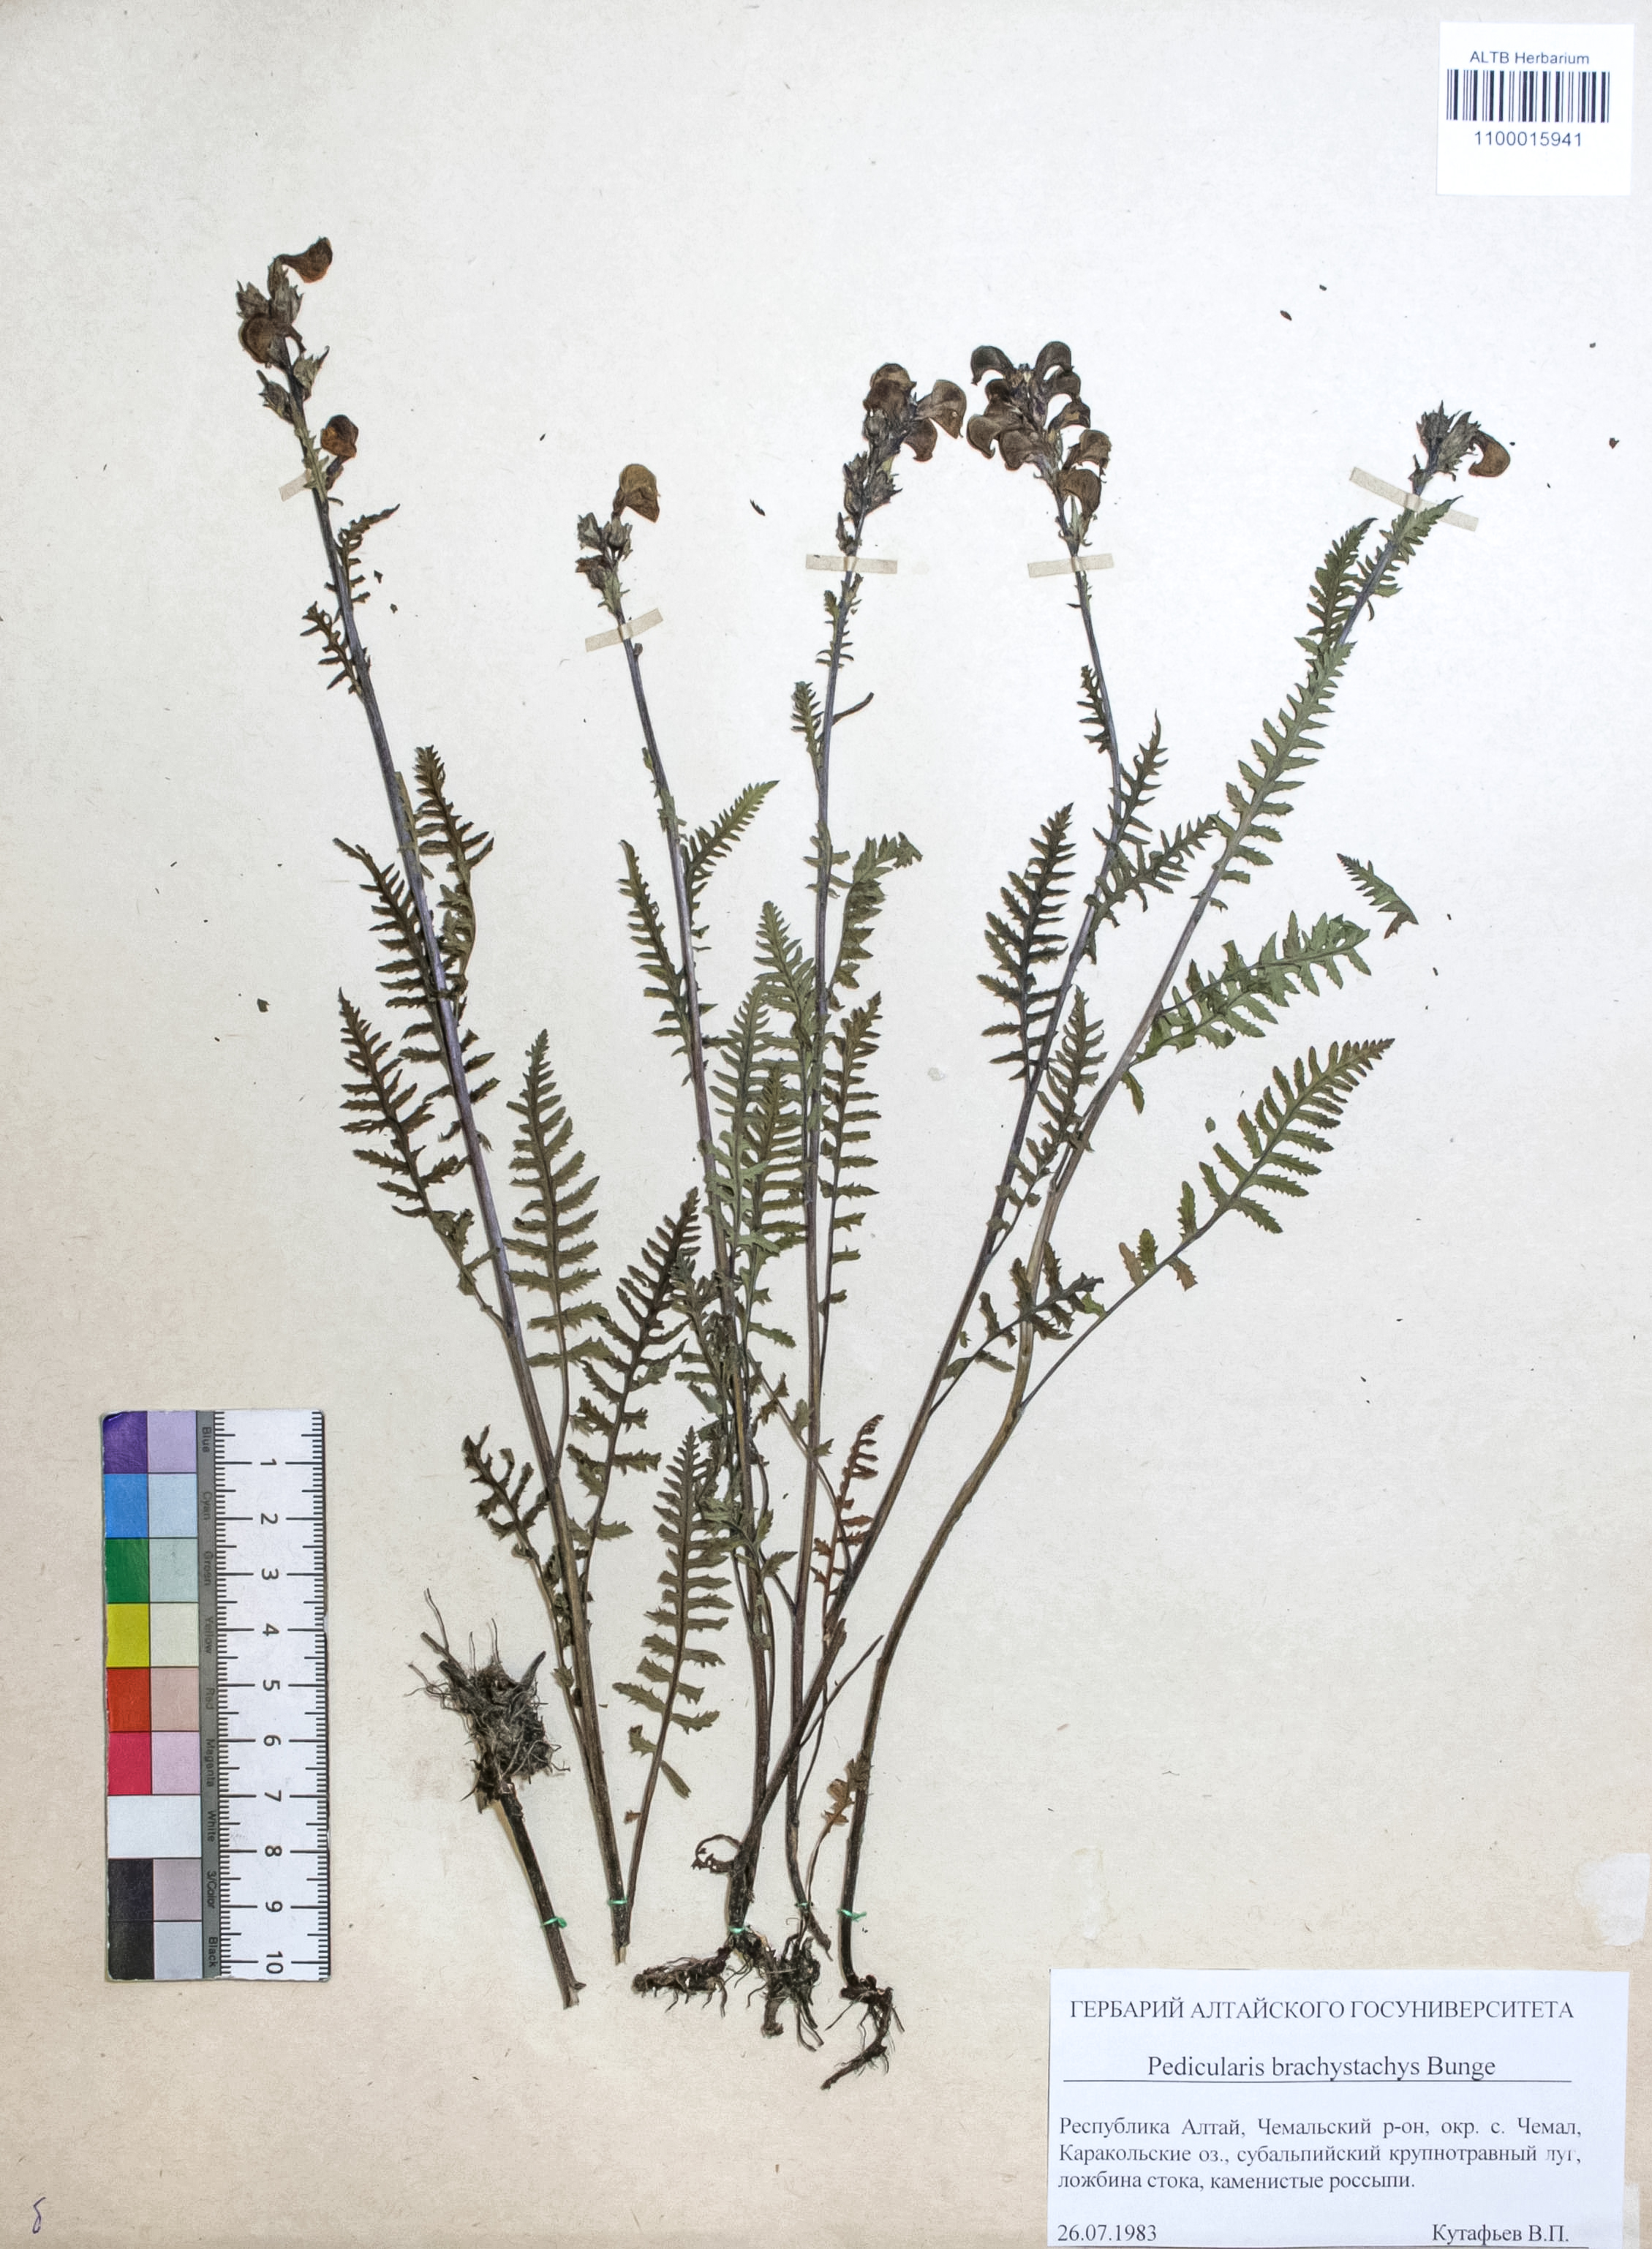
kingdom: Plantae
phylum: Tracheophyta
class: Magnoliopsida
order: Lamiales
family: Orobanchaceae
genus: Pedicularis
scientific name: Pedicularis brachystachys
